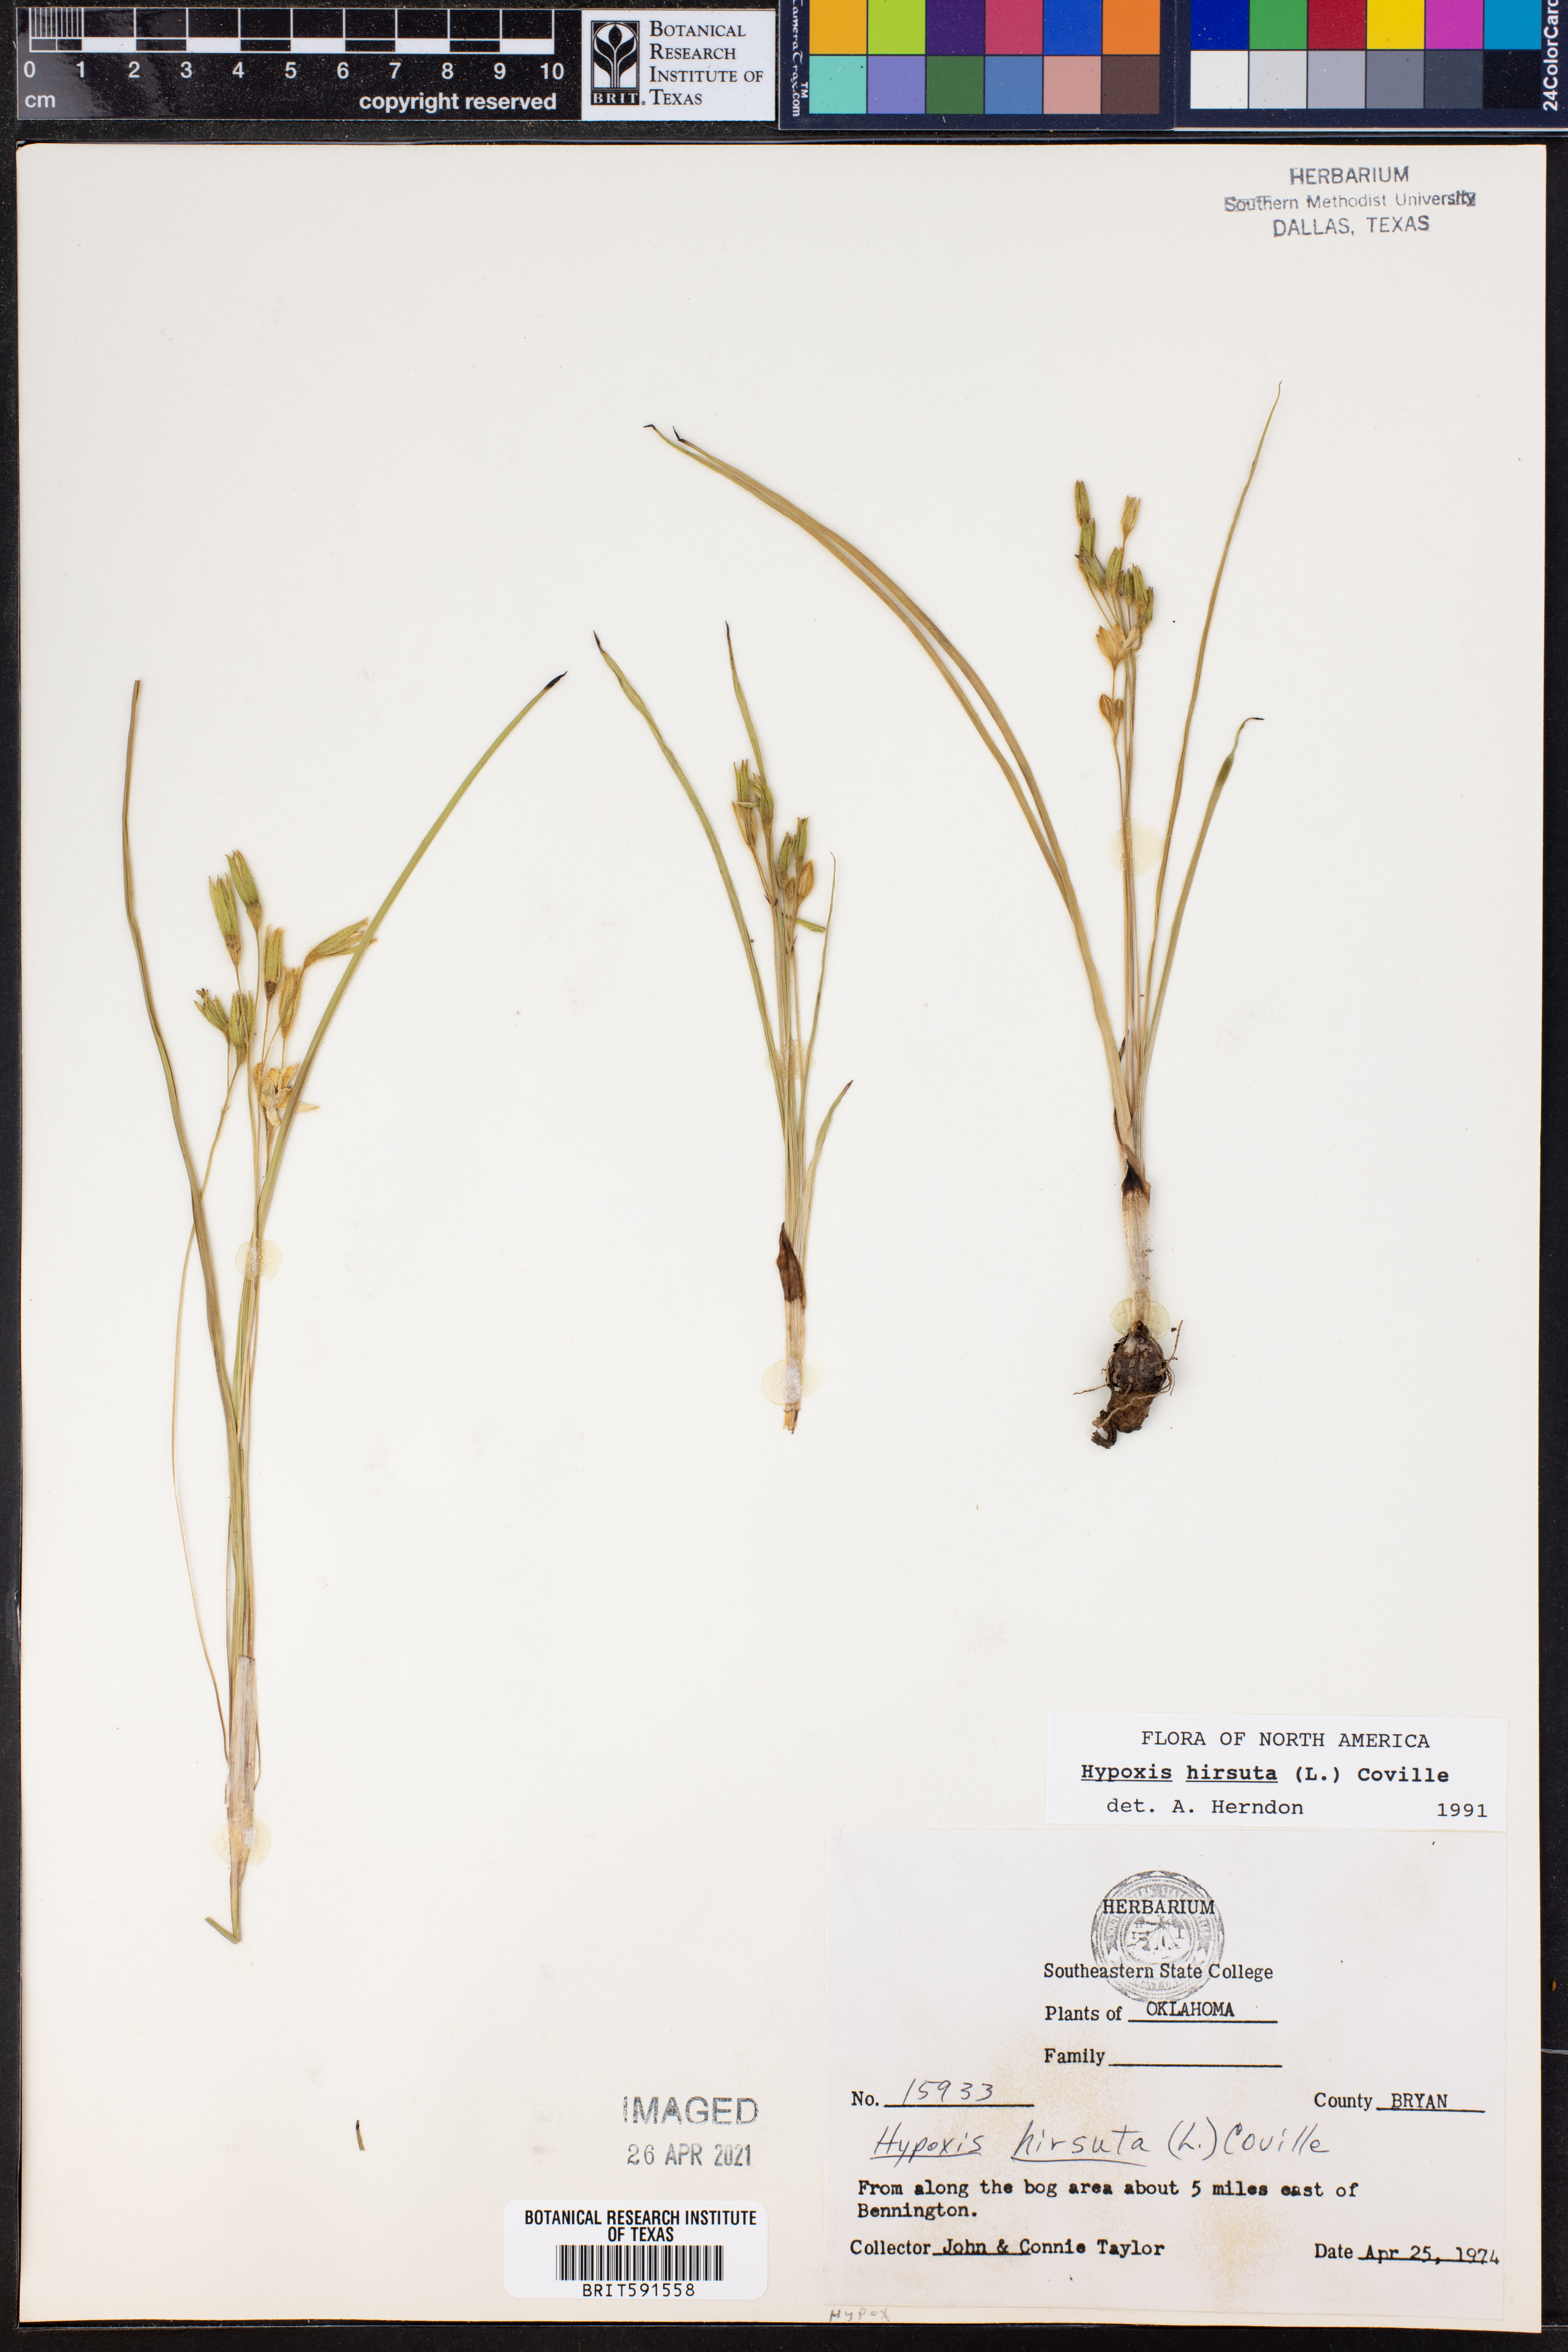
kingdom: Plantae
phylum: Tracheophyta
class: Liliopsida
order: Asparagales
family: Hypoxidaceae
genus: Hypoxis
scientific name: Hypoxis hirsuta
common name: Common goldstar
